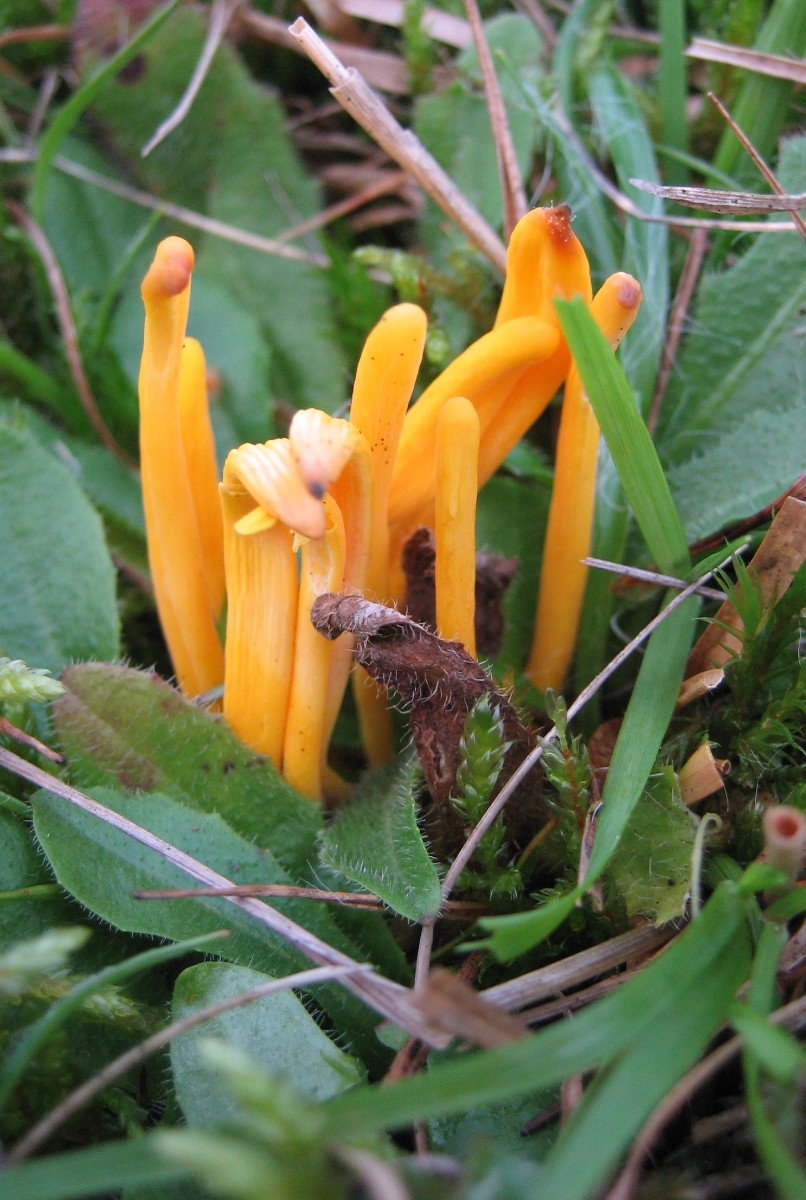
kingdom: Fungi
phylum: Basidiomycota
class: Agaricomycetes
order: Agaricales
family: Clavariaceae
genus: Clavulinopsis
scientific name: Clavulinopsis
